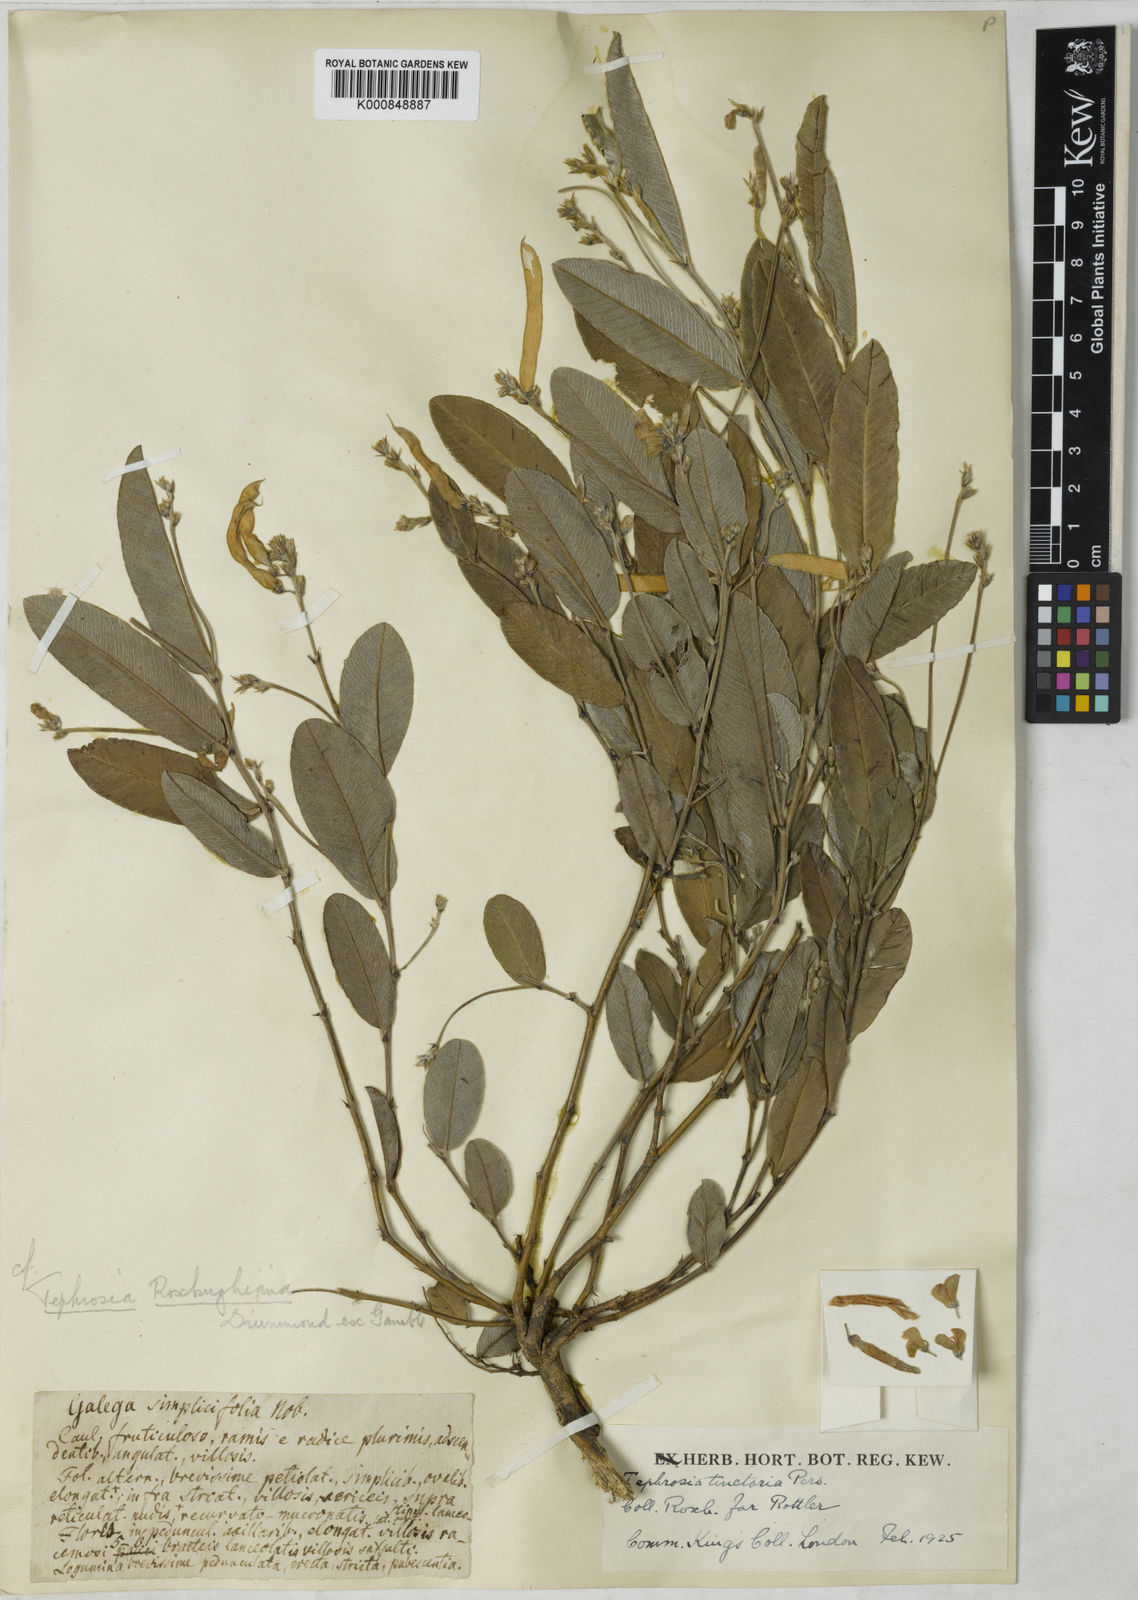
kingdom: Plantae
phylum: Tracheophyta
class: Magnoliopsida
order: Fabales
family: Fabaceae
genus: Tephrosia
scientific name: Tephrosia roxburghiana
